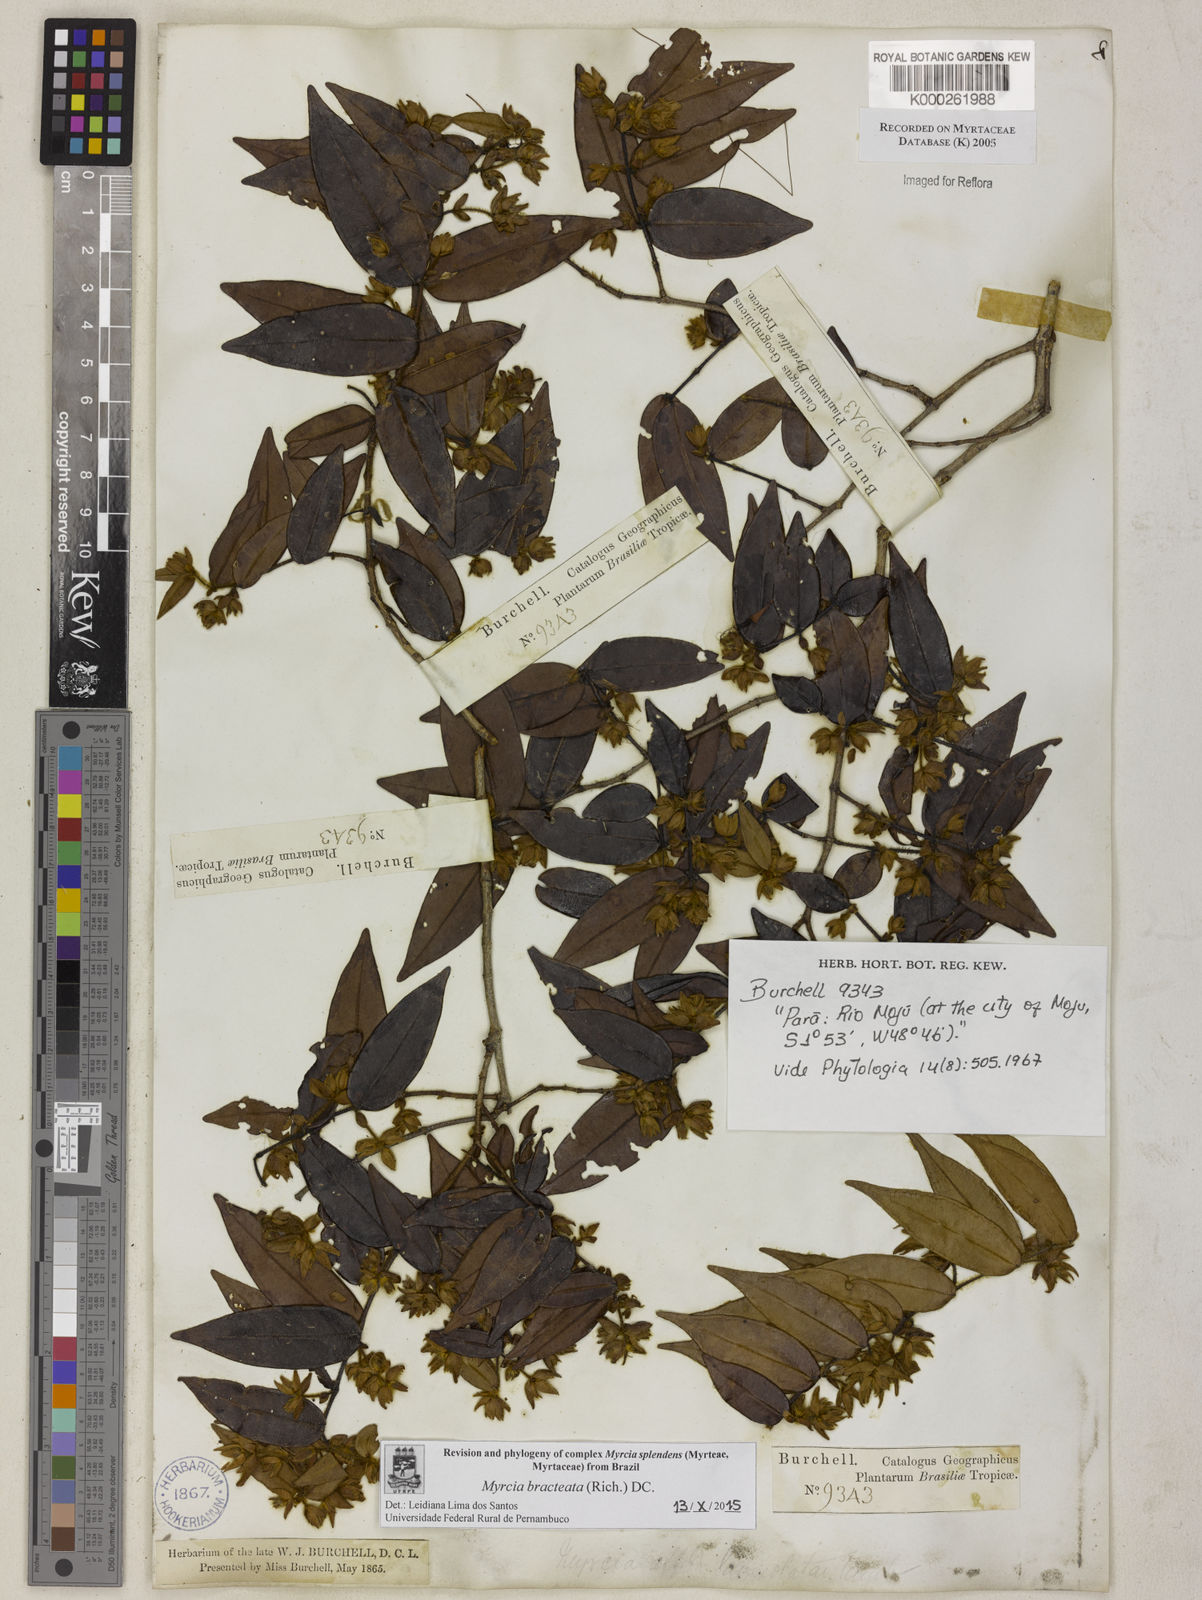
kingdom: Plantae
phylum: Tracheophyta
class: Magnoliopsida
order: Myrtales
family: Myrtaceae
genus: Myrcia
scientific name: Myrcia bracteata
